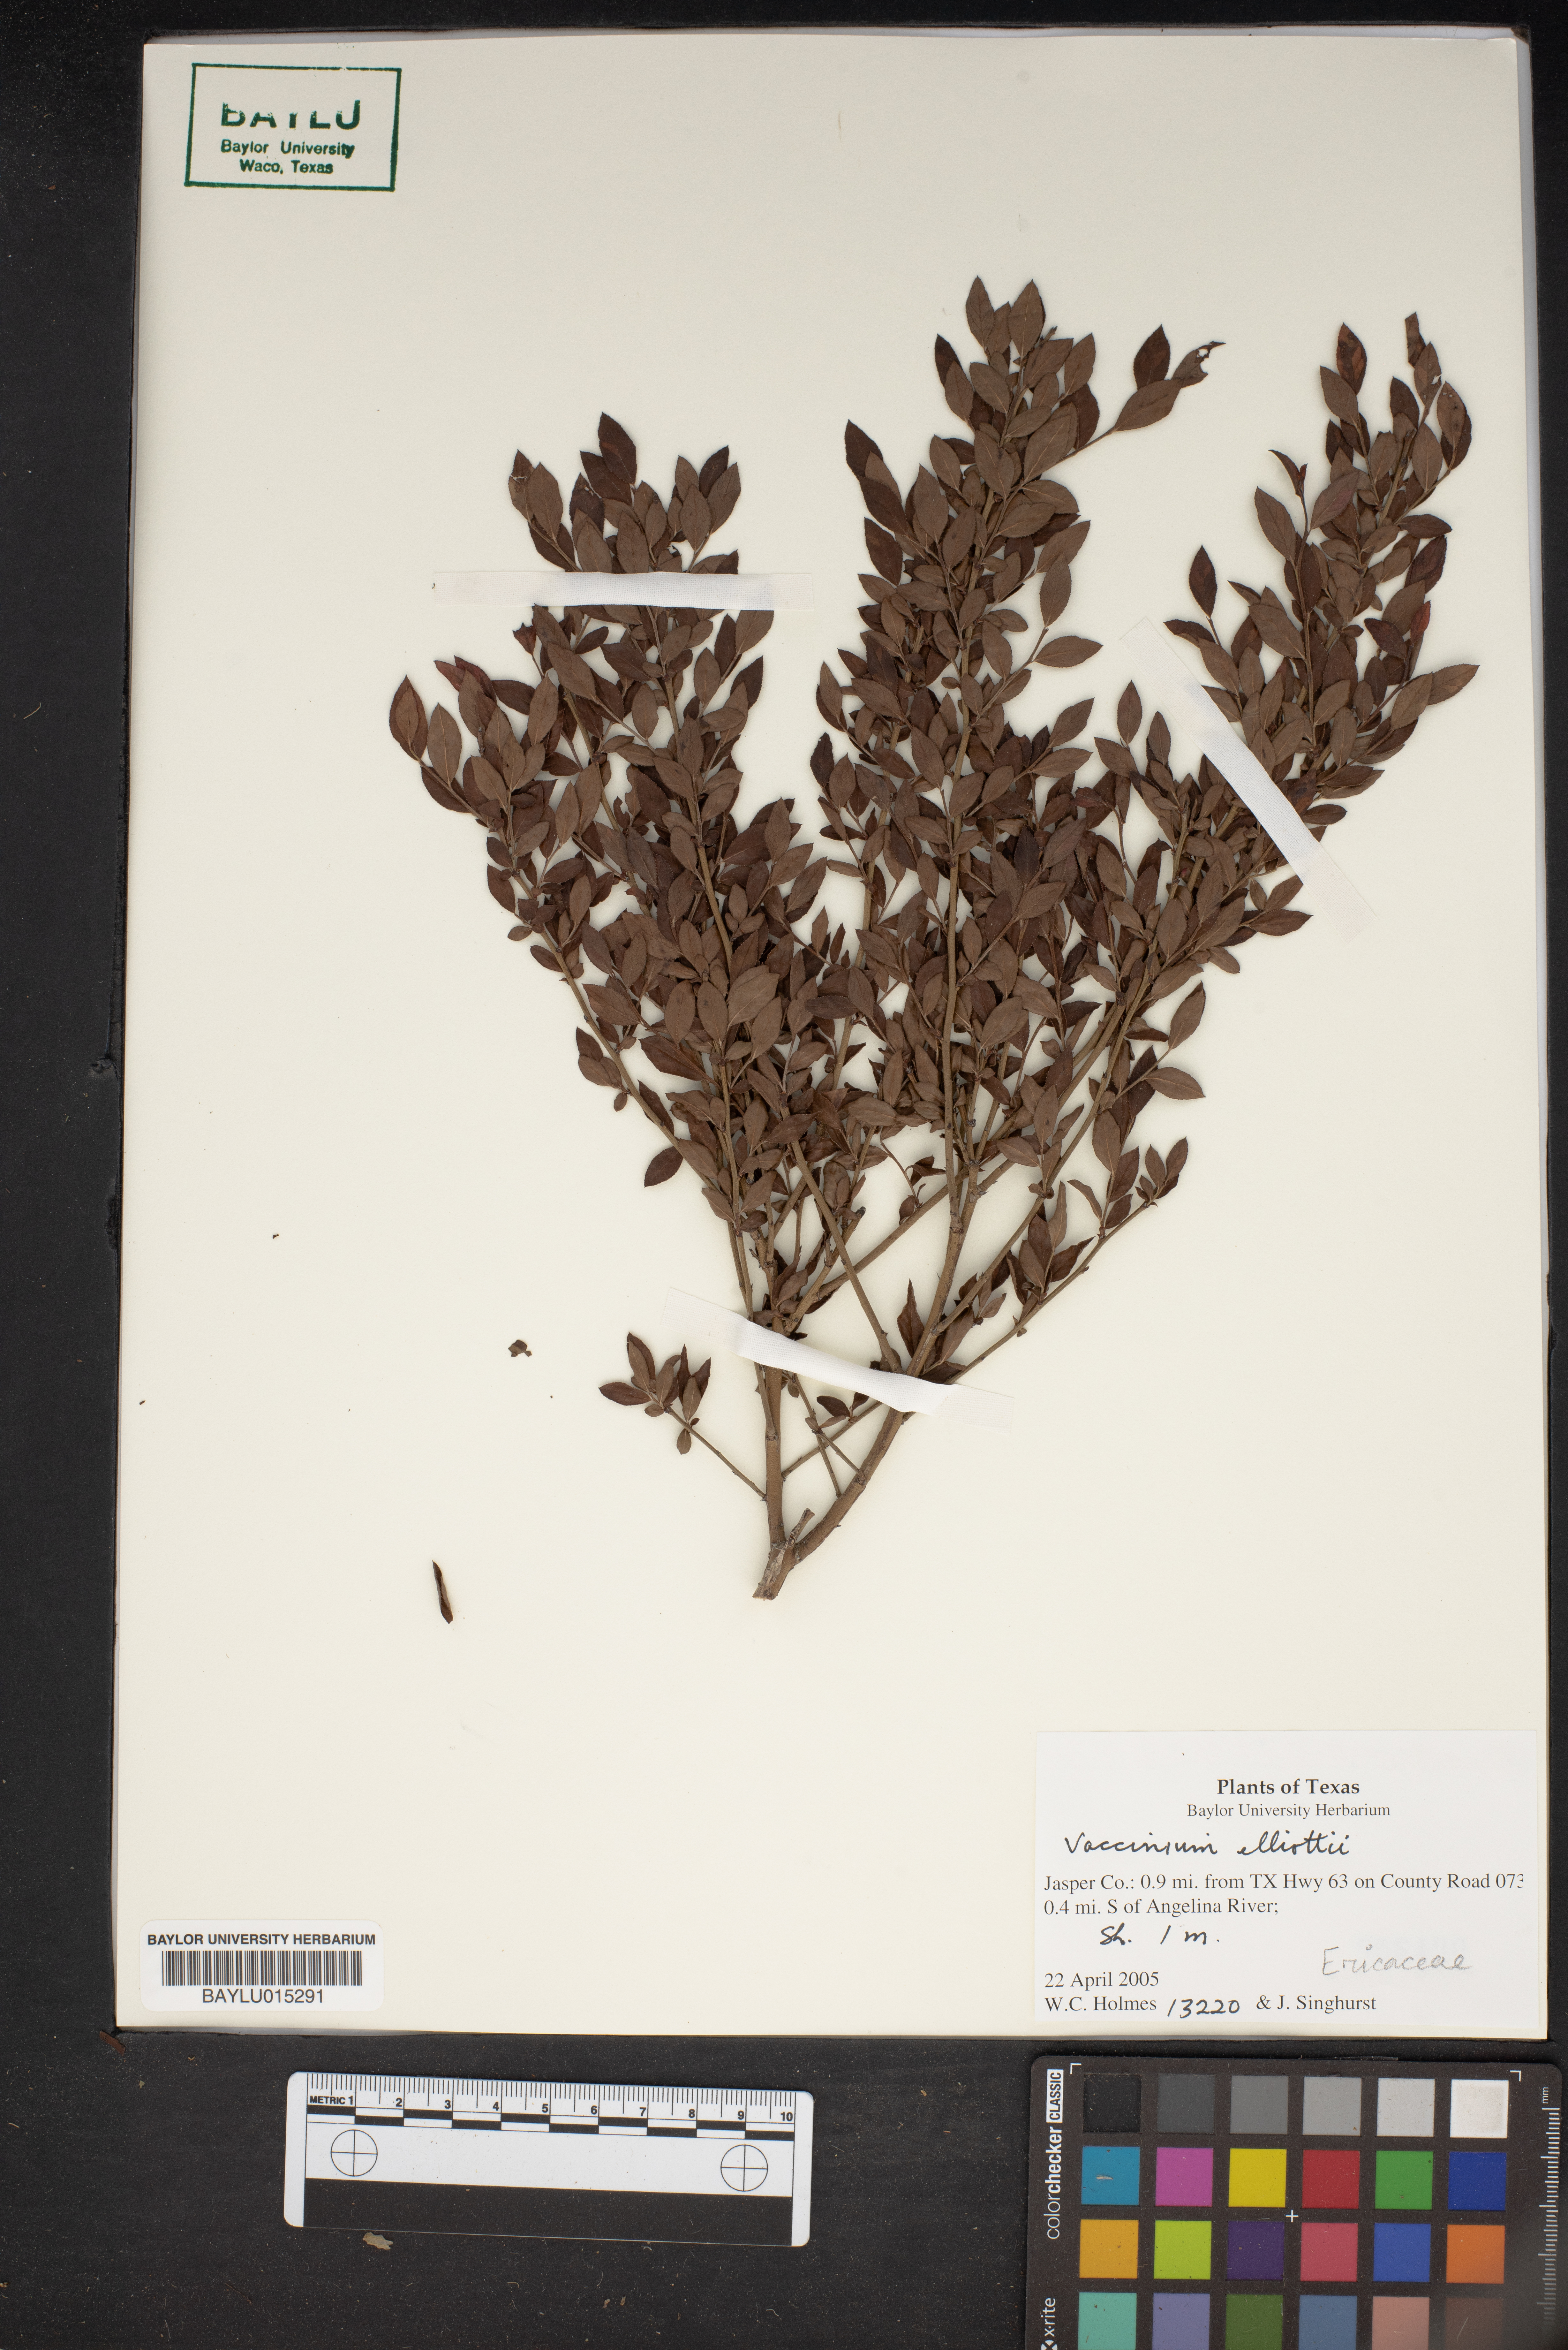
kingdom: Plantae
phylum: Tracheophyta
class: Magnoliopsida
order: Ericales
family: Ericaceae
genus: Vaccinium
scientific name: Vaccinium corymbosum
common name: Blueberry
